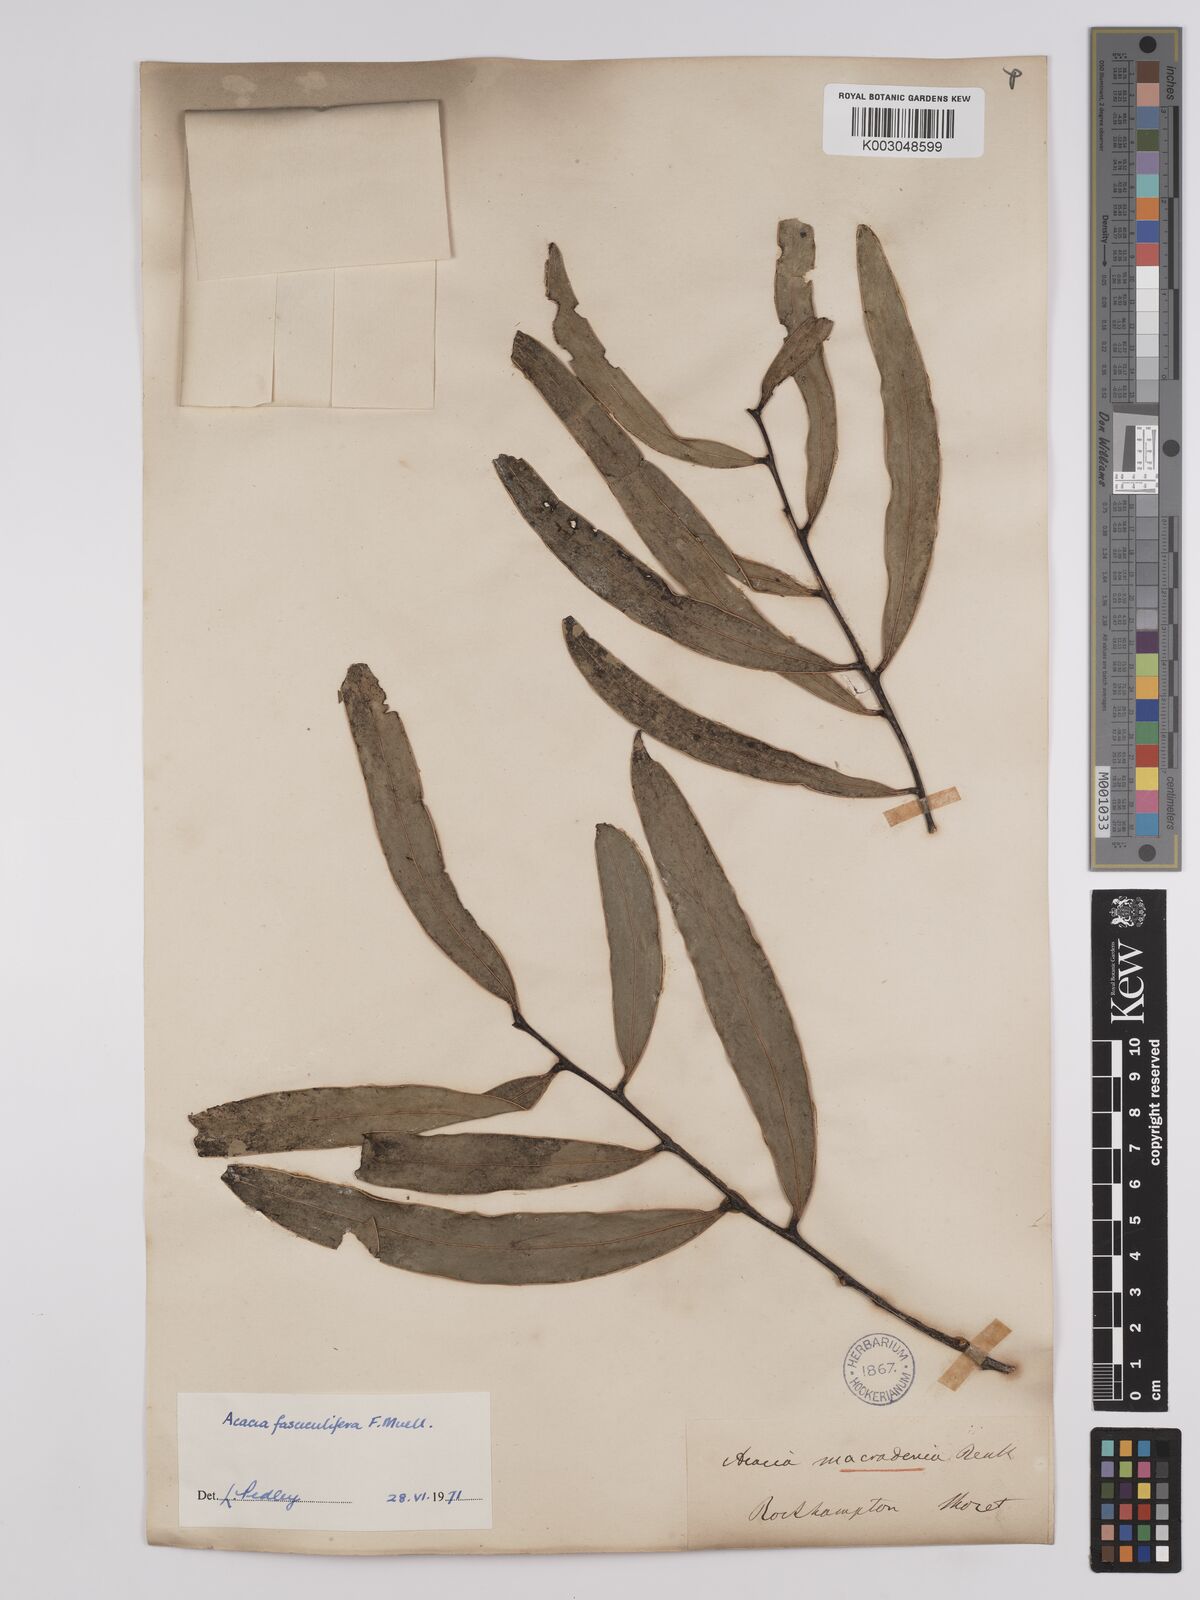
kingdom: Plantae
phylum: Tracheophyta
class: Magnoliopsida
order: Fabales
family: Fabaceae
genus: Acacia
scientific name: Acacia fasciculifera
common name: Scalybark
